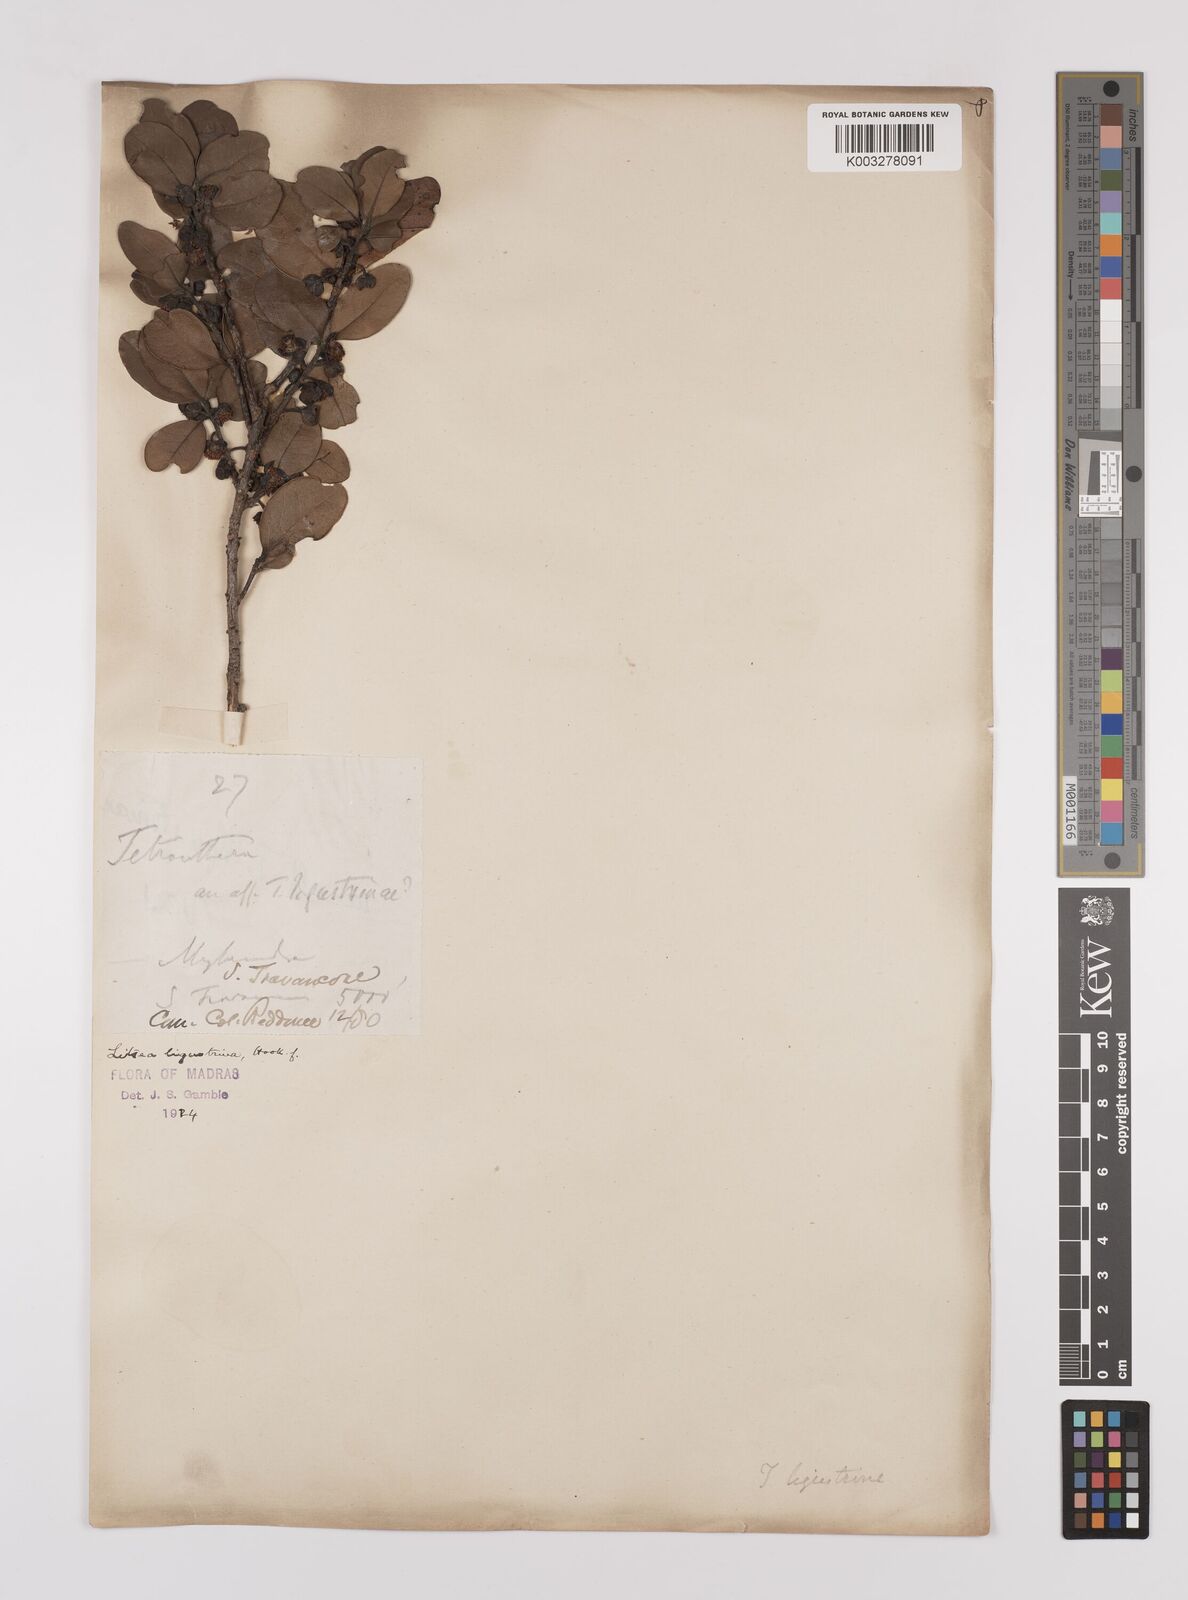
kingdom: Plantae
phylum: Tracheophyta
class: Magnoliopsida
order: Laurales
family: Lauraceae
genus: Litsea
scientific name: Litsea ligustrina
